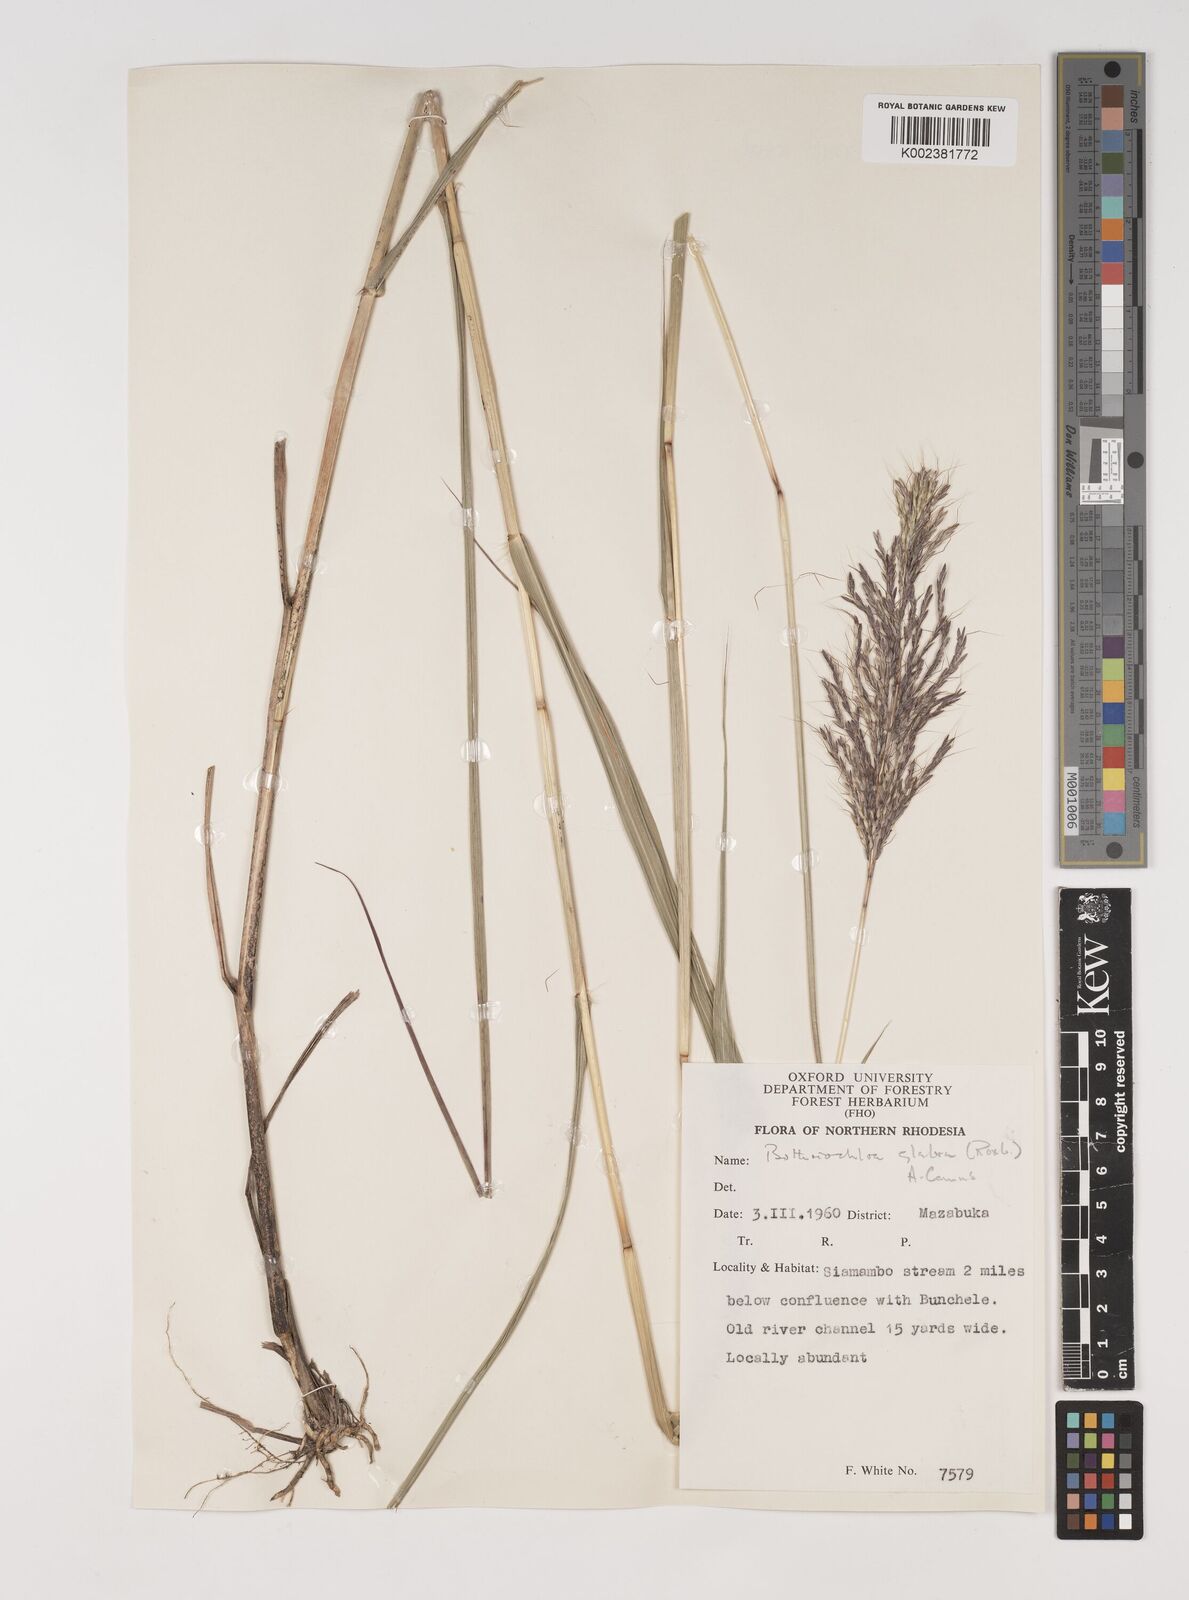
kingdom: Plantae
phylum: Tracheophyta
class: Liliopsida
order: Poales
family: Poaceae
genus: Bothriochloa
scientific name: Bothriochloa bladhii
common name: Caucasian bluestem
